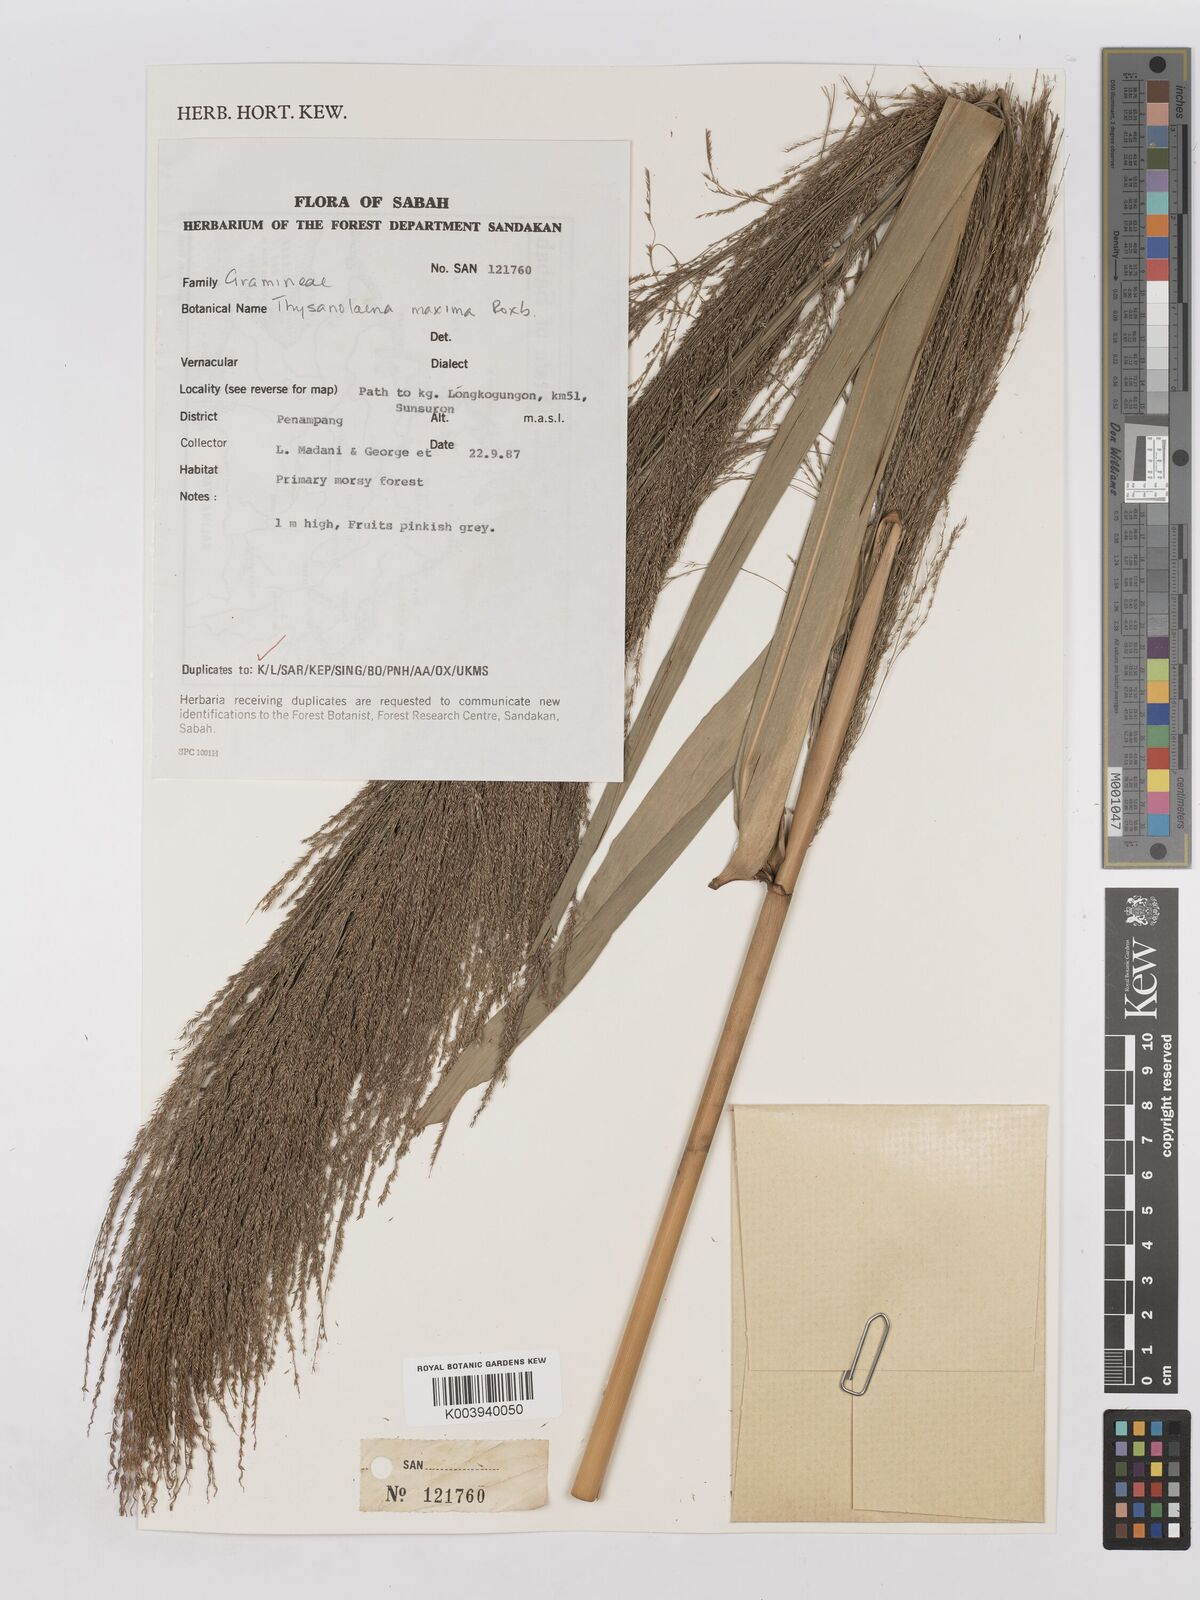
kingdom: Plantae
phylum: Tracheophyta
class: Liliopsida
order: Poales
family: Poaceae
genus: Thysanolaena
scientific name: Thysanolaena latifolia
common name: Tiger grass
